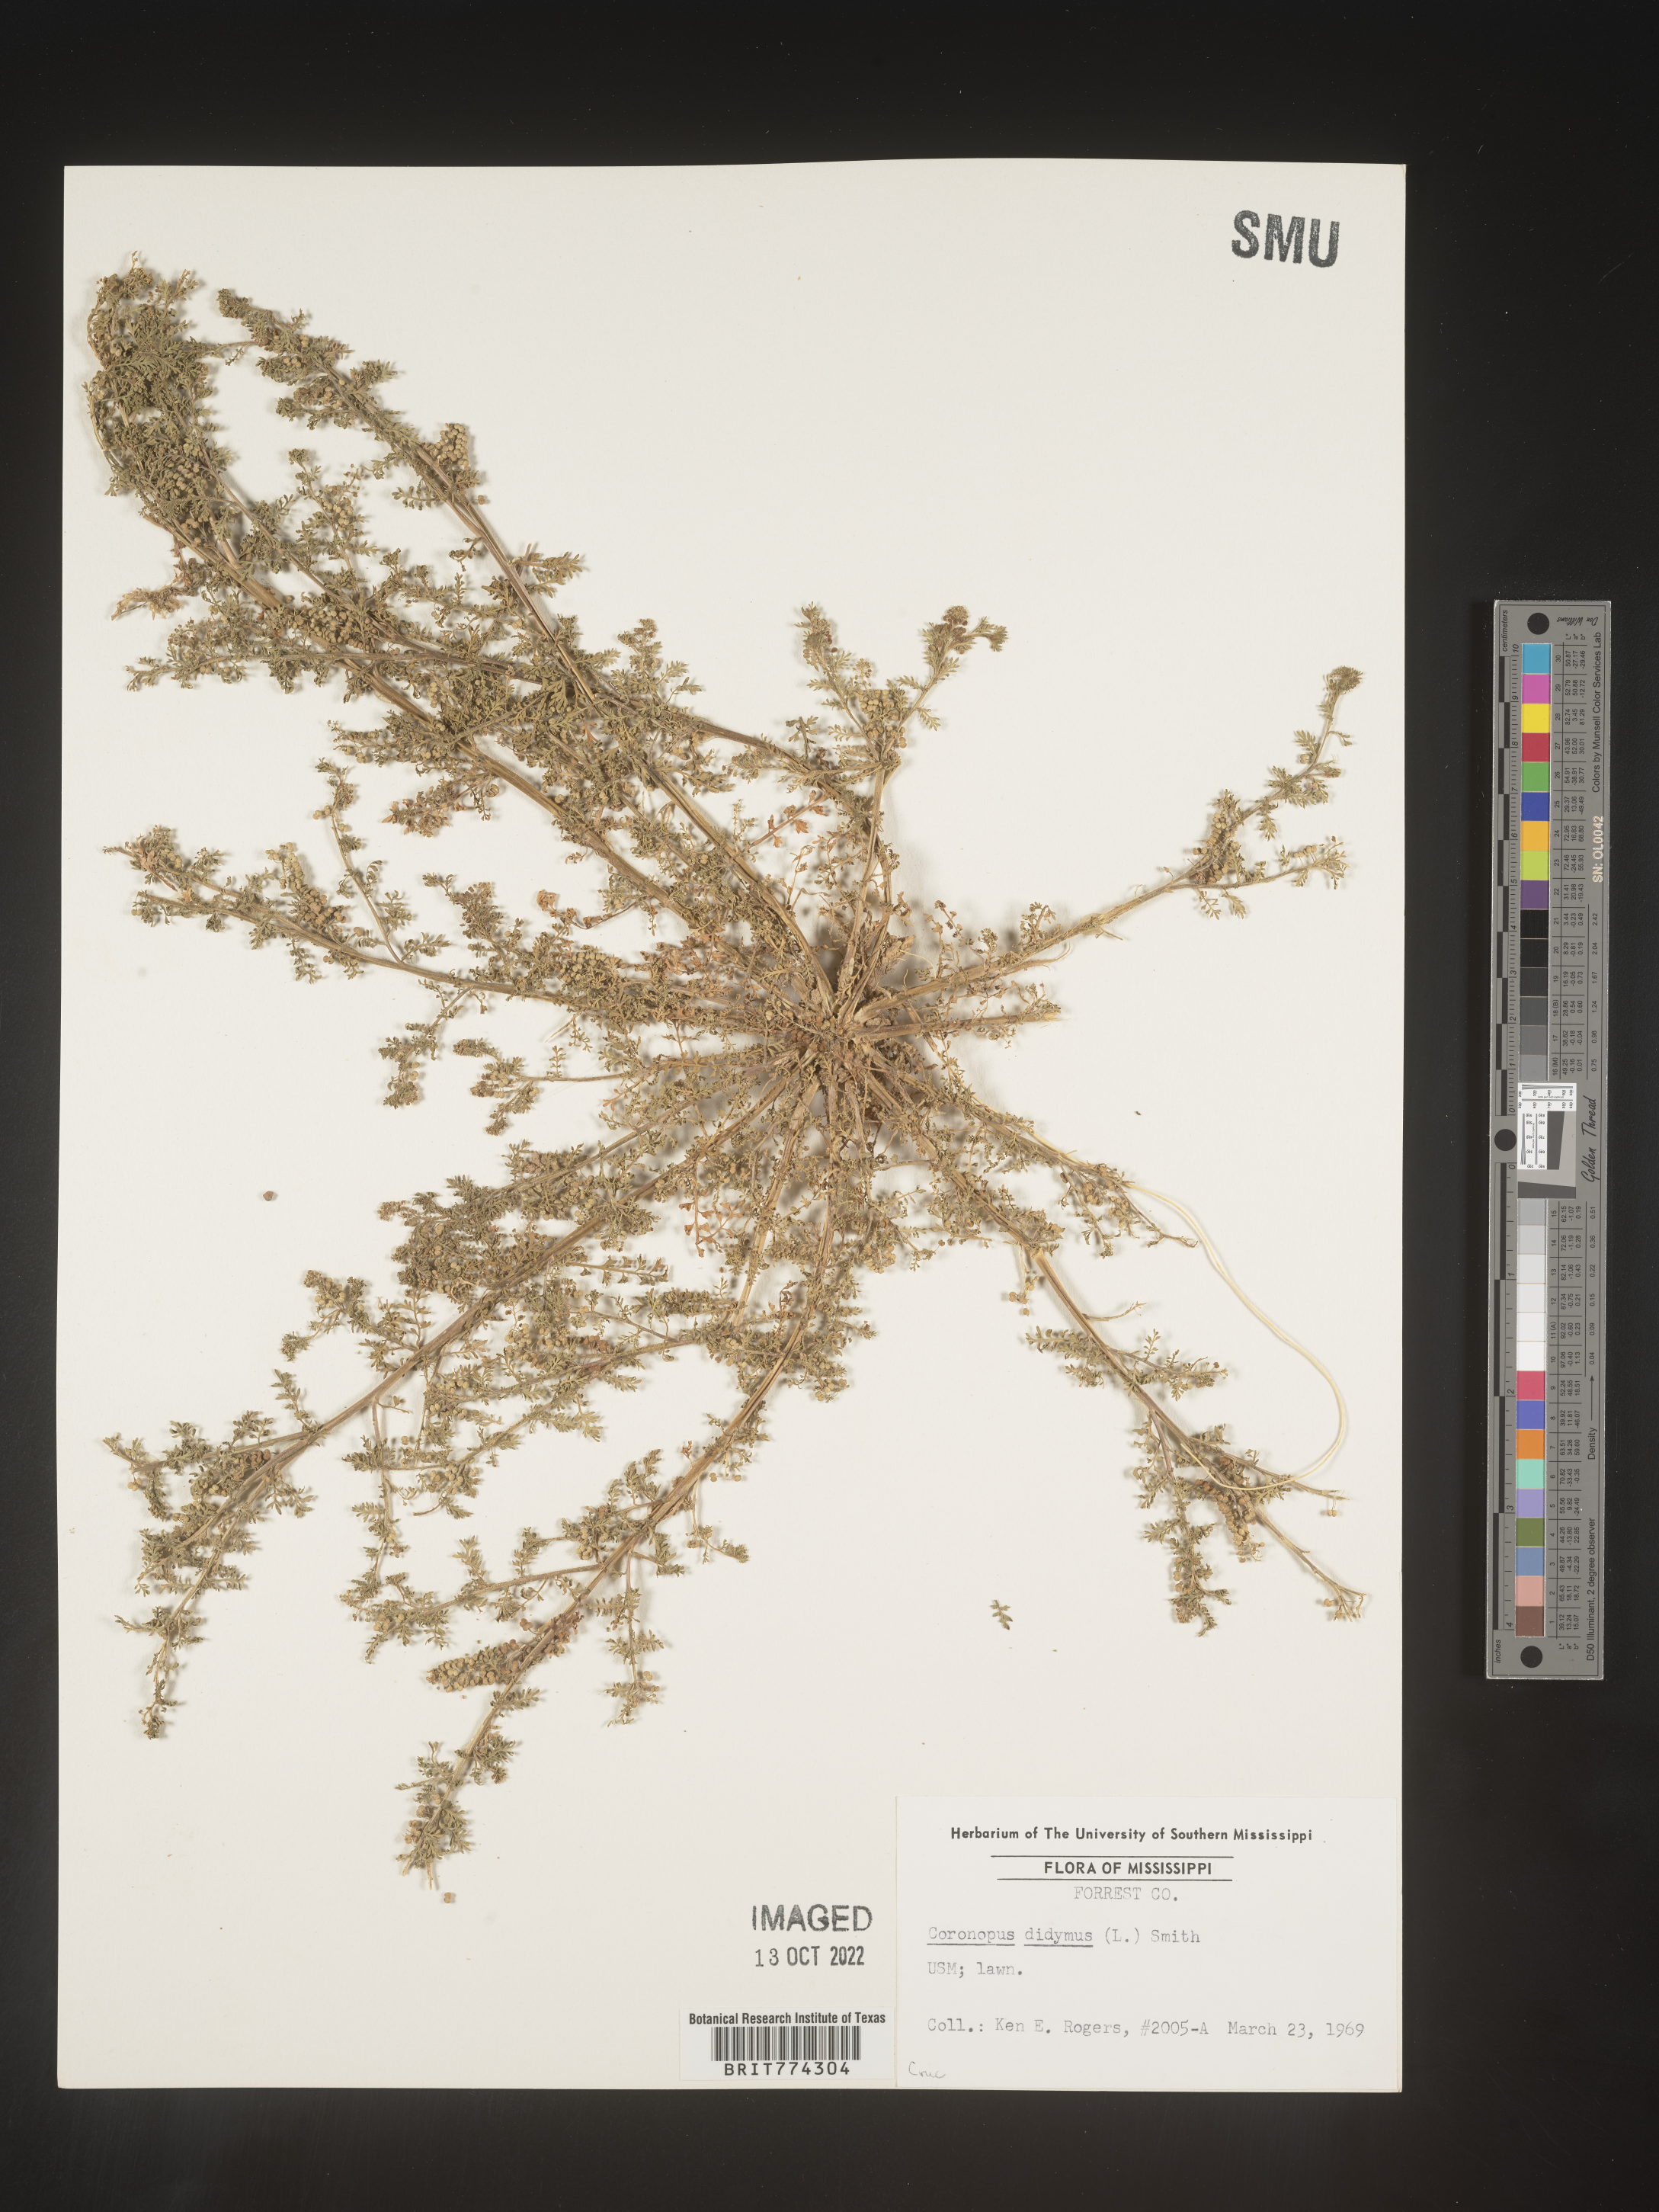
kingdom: Plantae
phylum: Tracheophyta
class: Magnoliopsida
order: Brassicales
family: Brassicaceae
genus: Coronopus
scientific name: Coronopus
